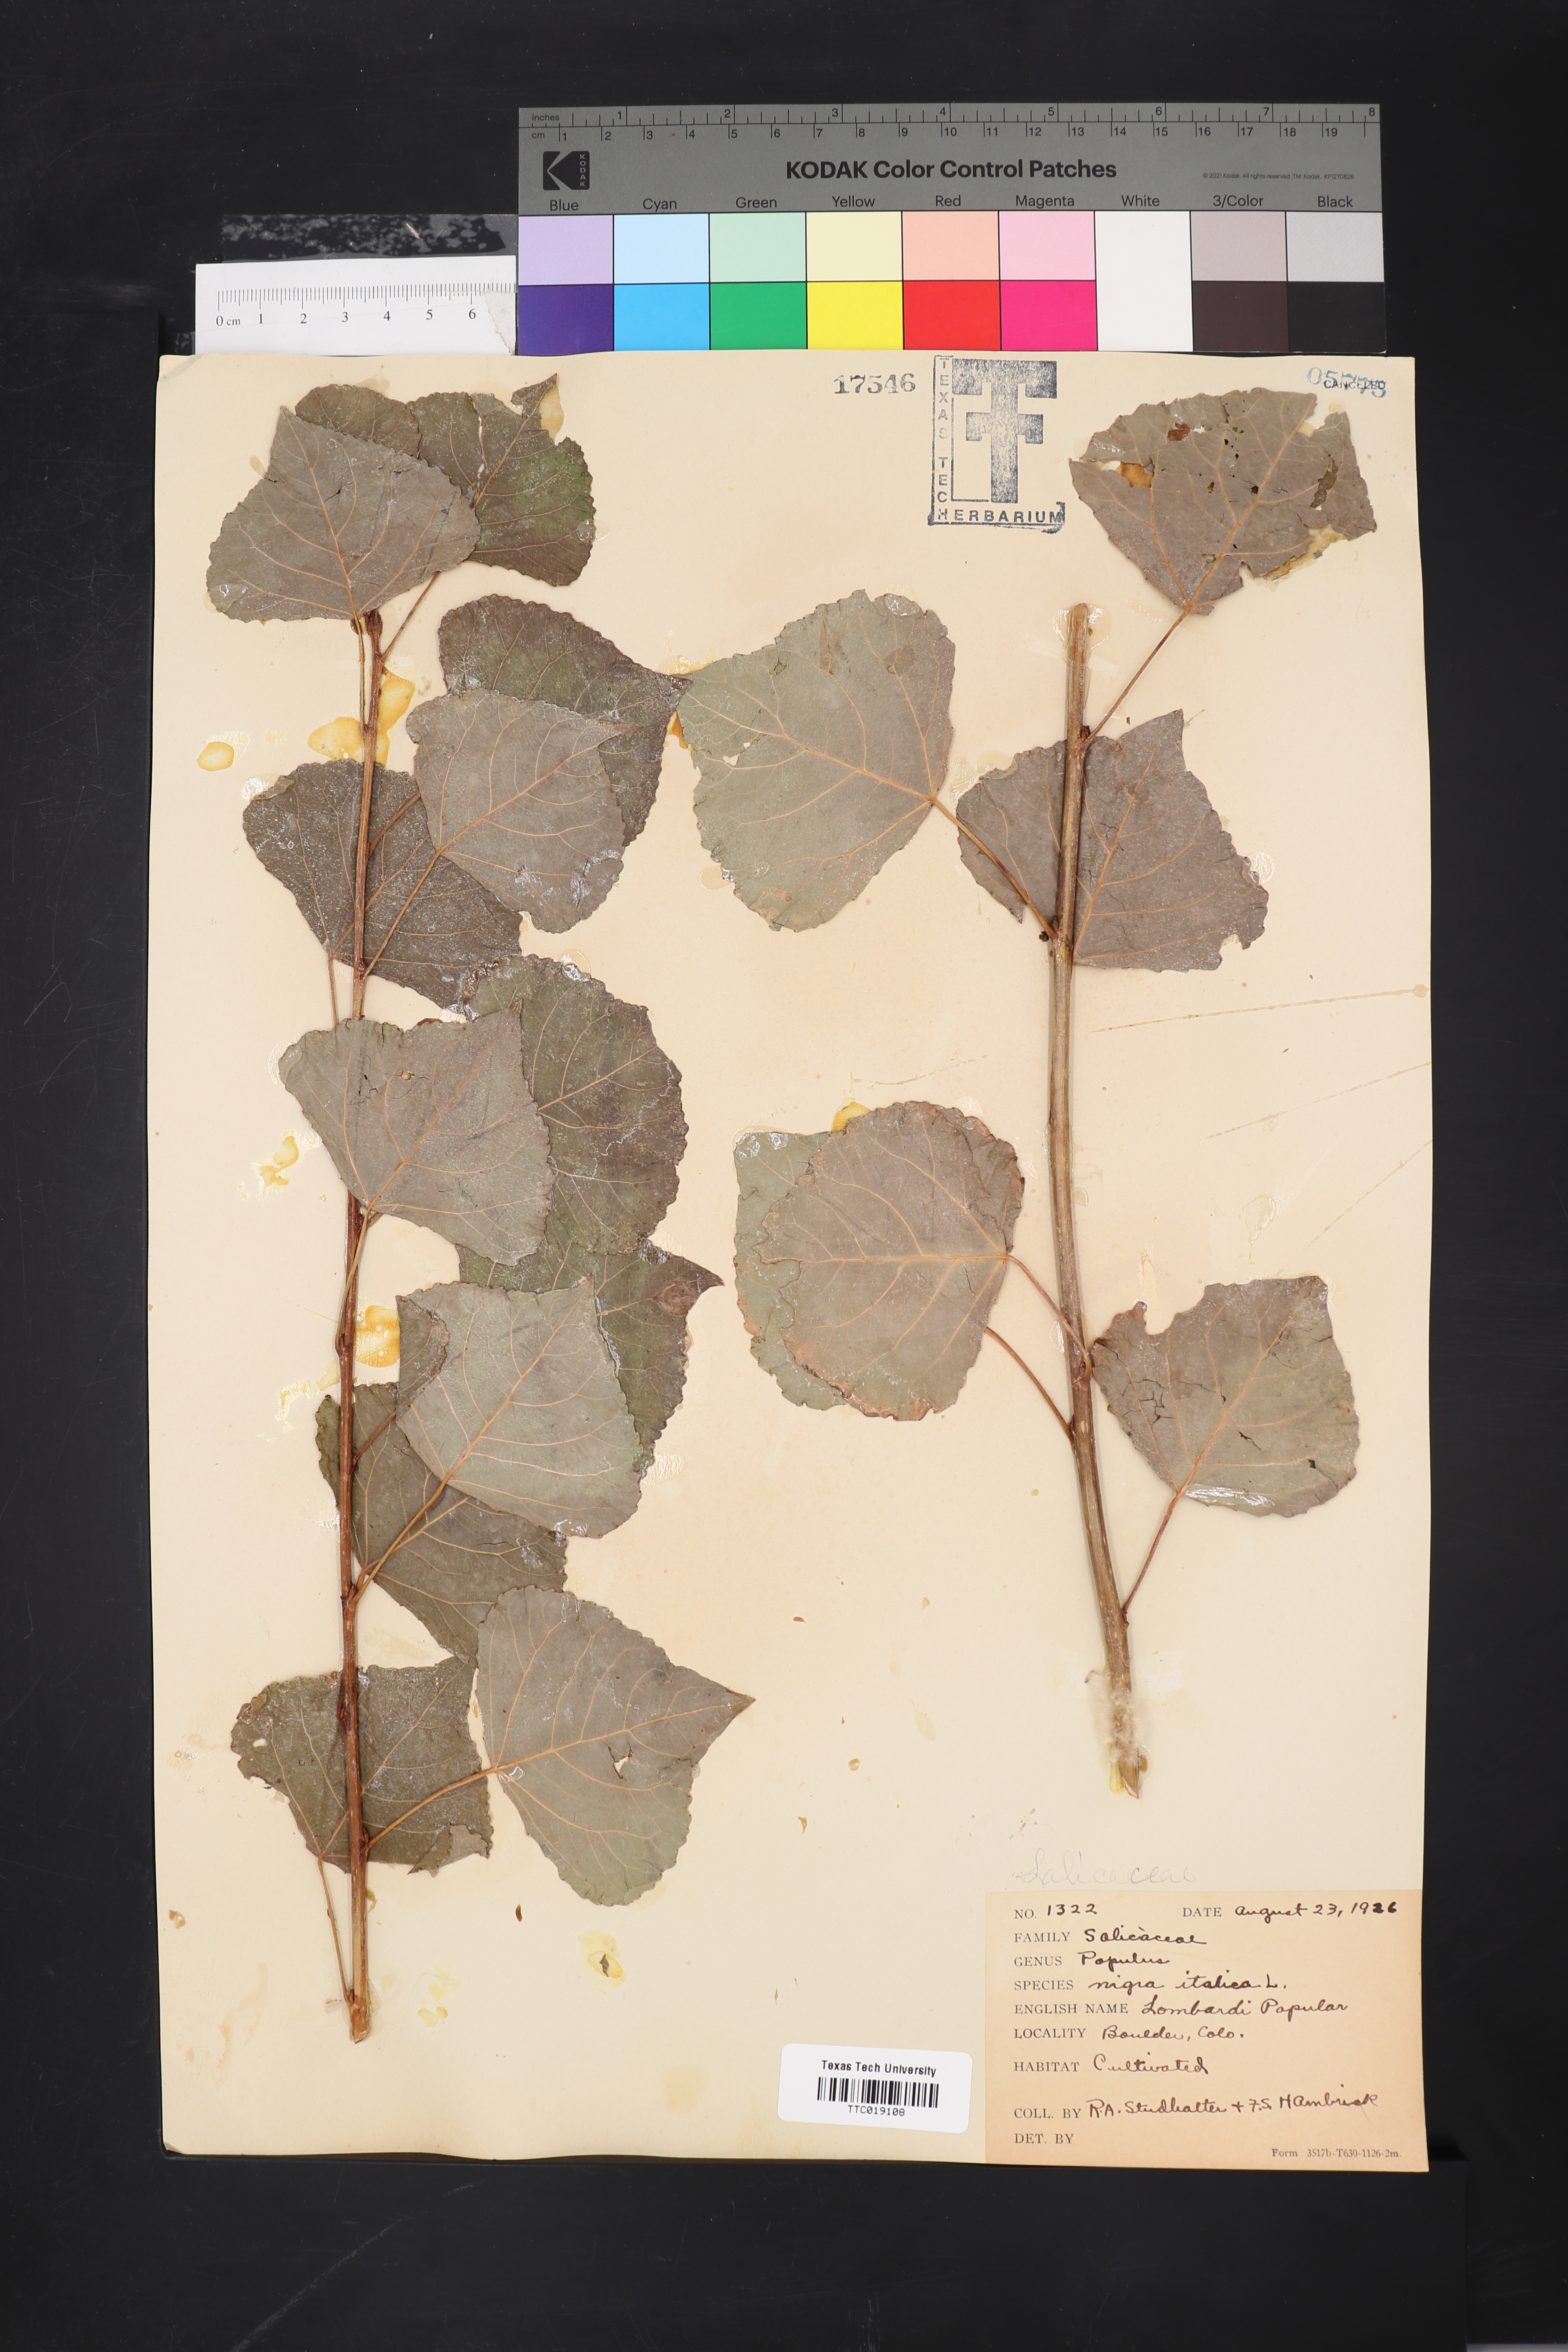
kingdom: Plantae
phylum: Tracheophyta
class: Magnoliopsida
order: Malpighiales
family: Salicaceae
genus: Populus
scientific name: Populus nigra
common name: Black poplar
